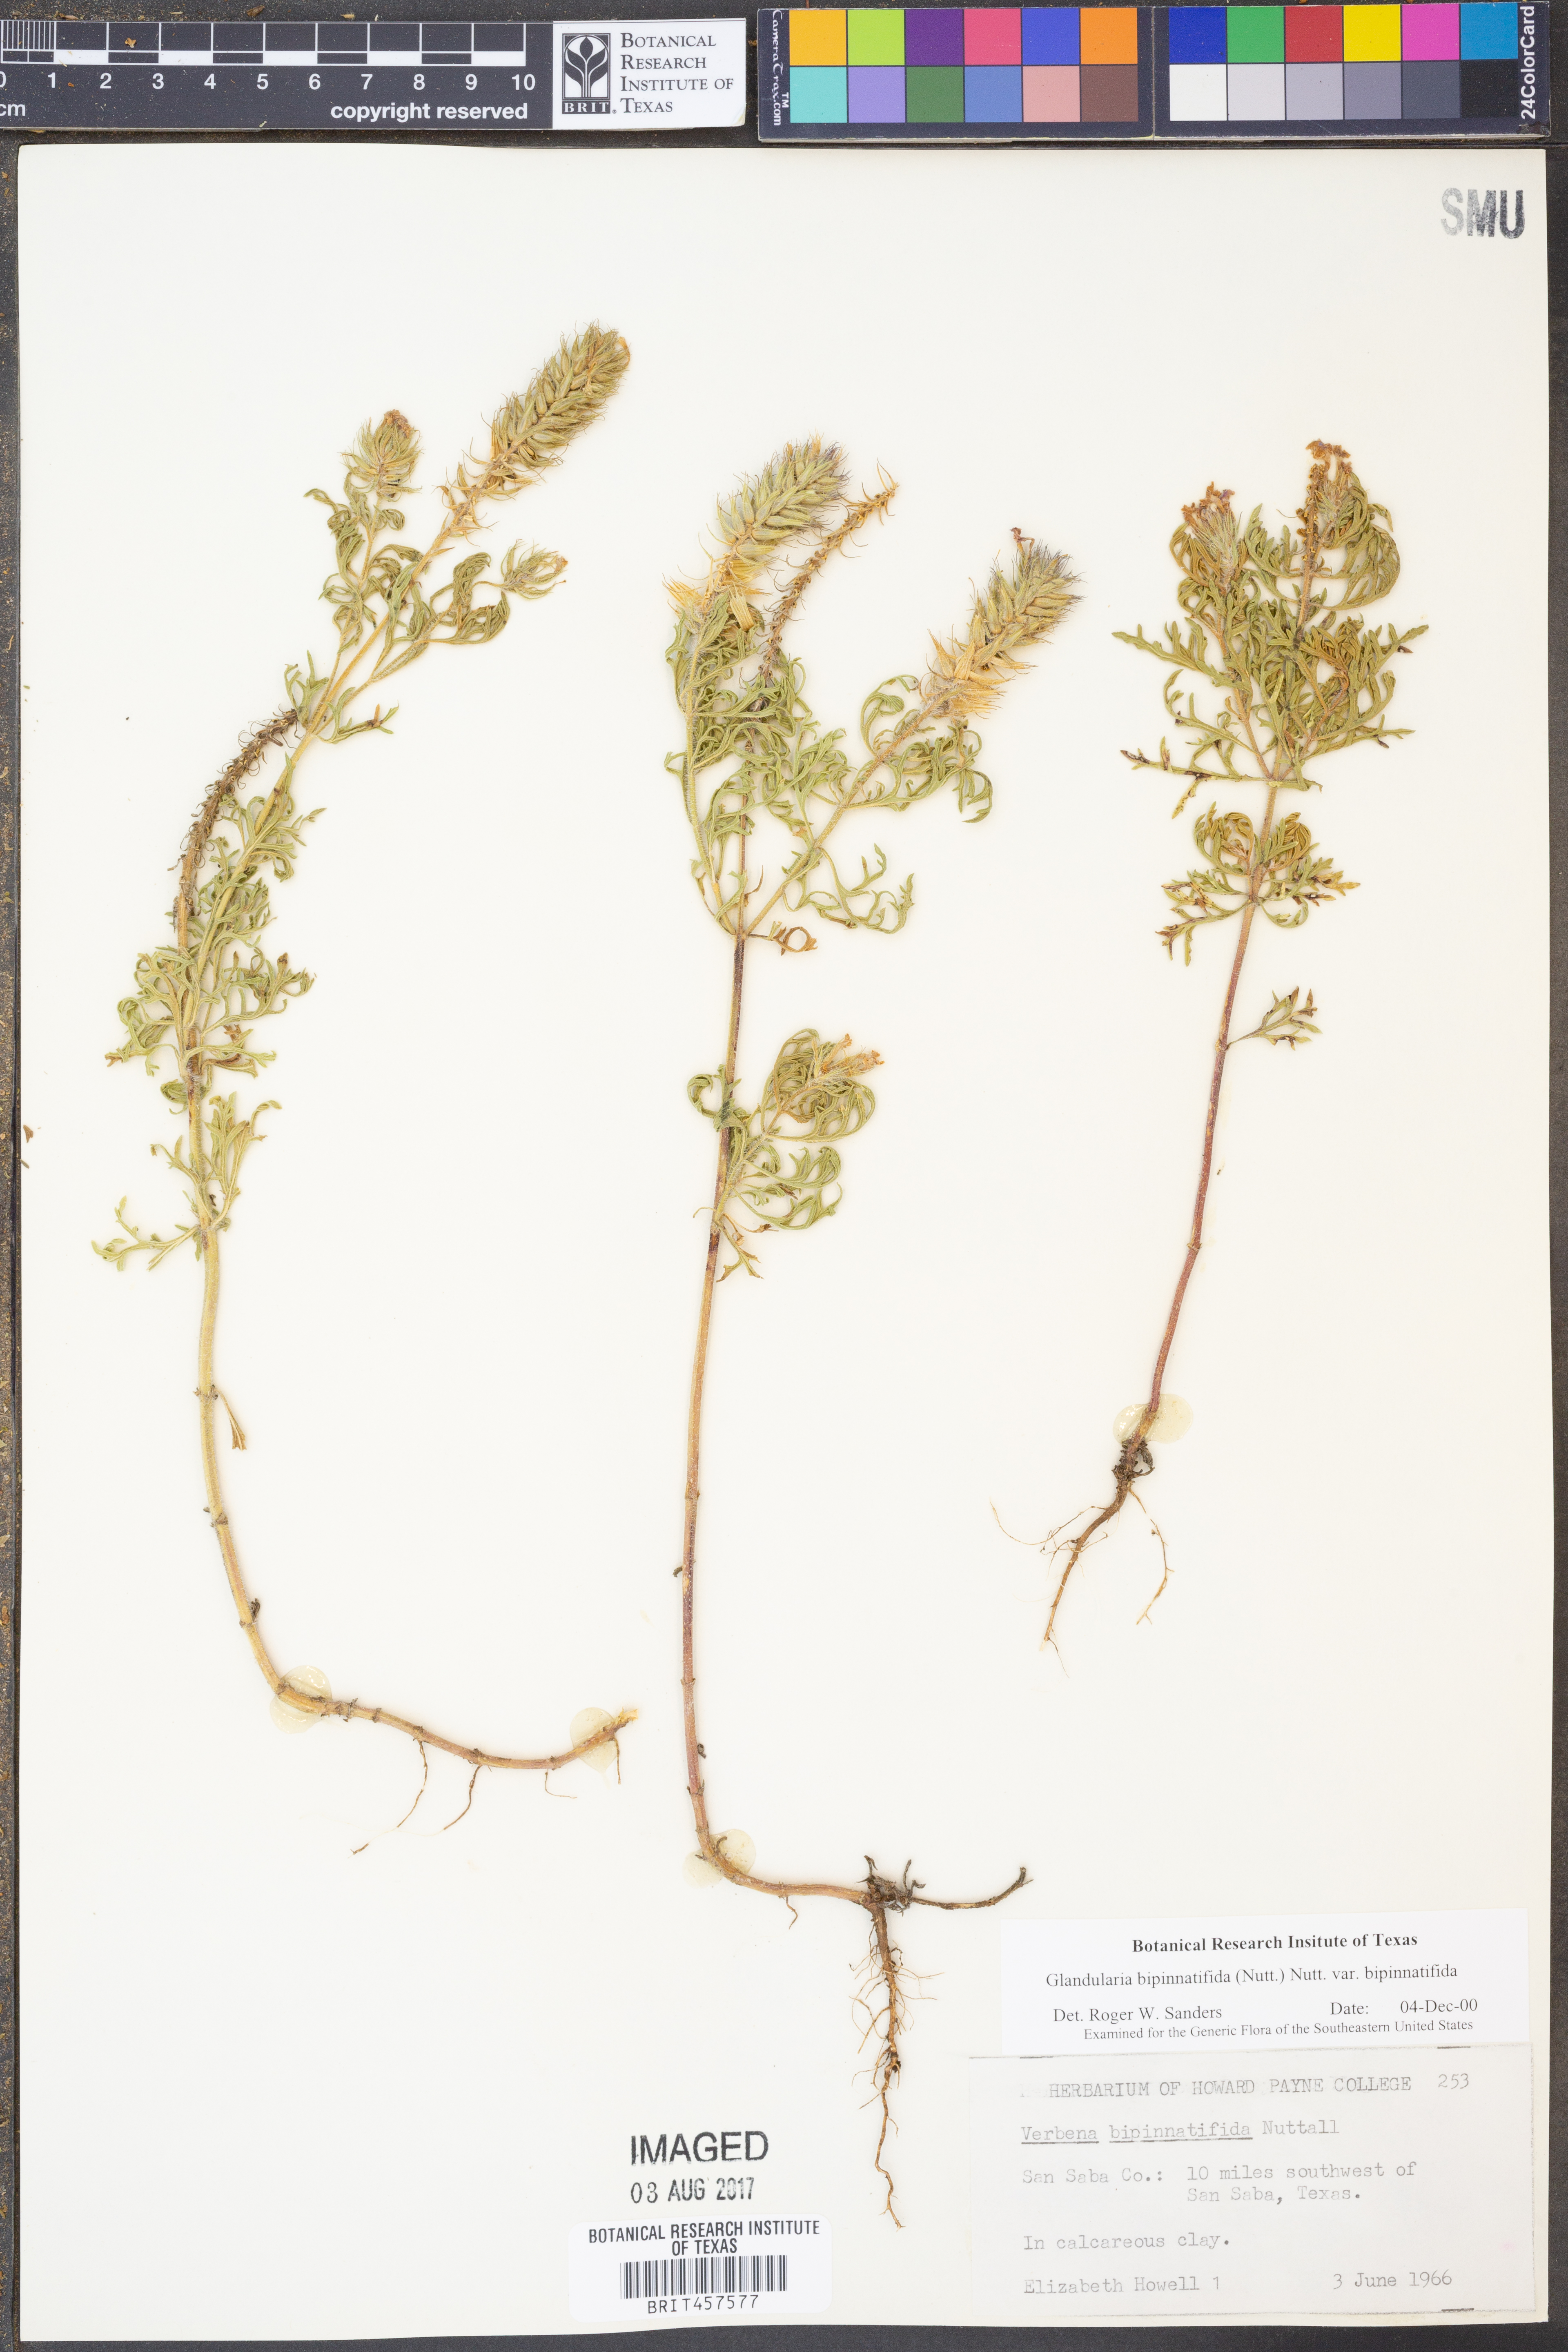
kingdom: Plantae
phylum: Tracheophyta
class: Magnoliopsida
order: Lamiales
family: Verbenaceae
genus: Verbena
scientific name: Verbena bipinnatifida
